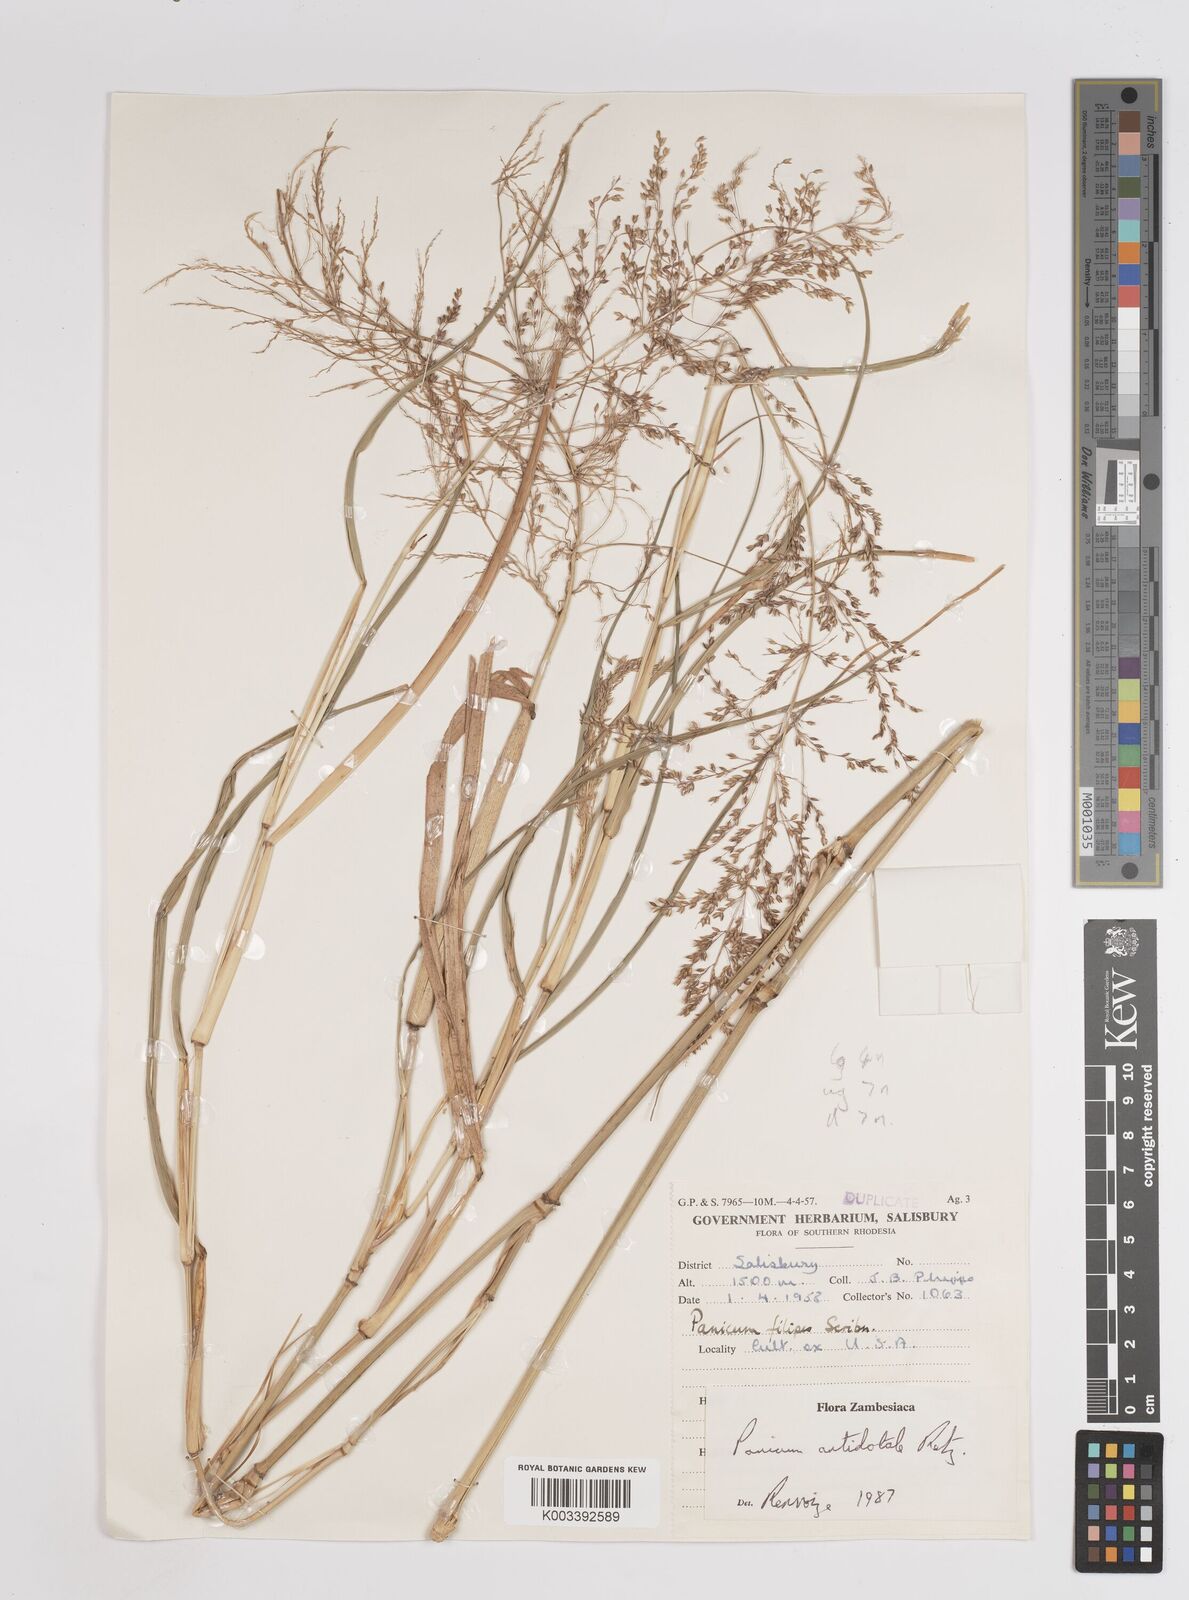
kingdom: Plantae
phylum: Tracheophyta
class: Liliopsida
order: Poales
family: Poaceae
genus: Panicum
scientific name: Panicum antidotale
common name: Blue panicum
